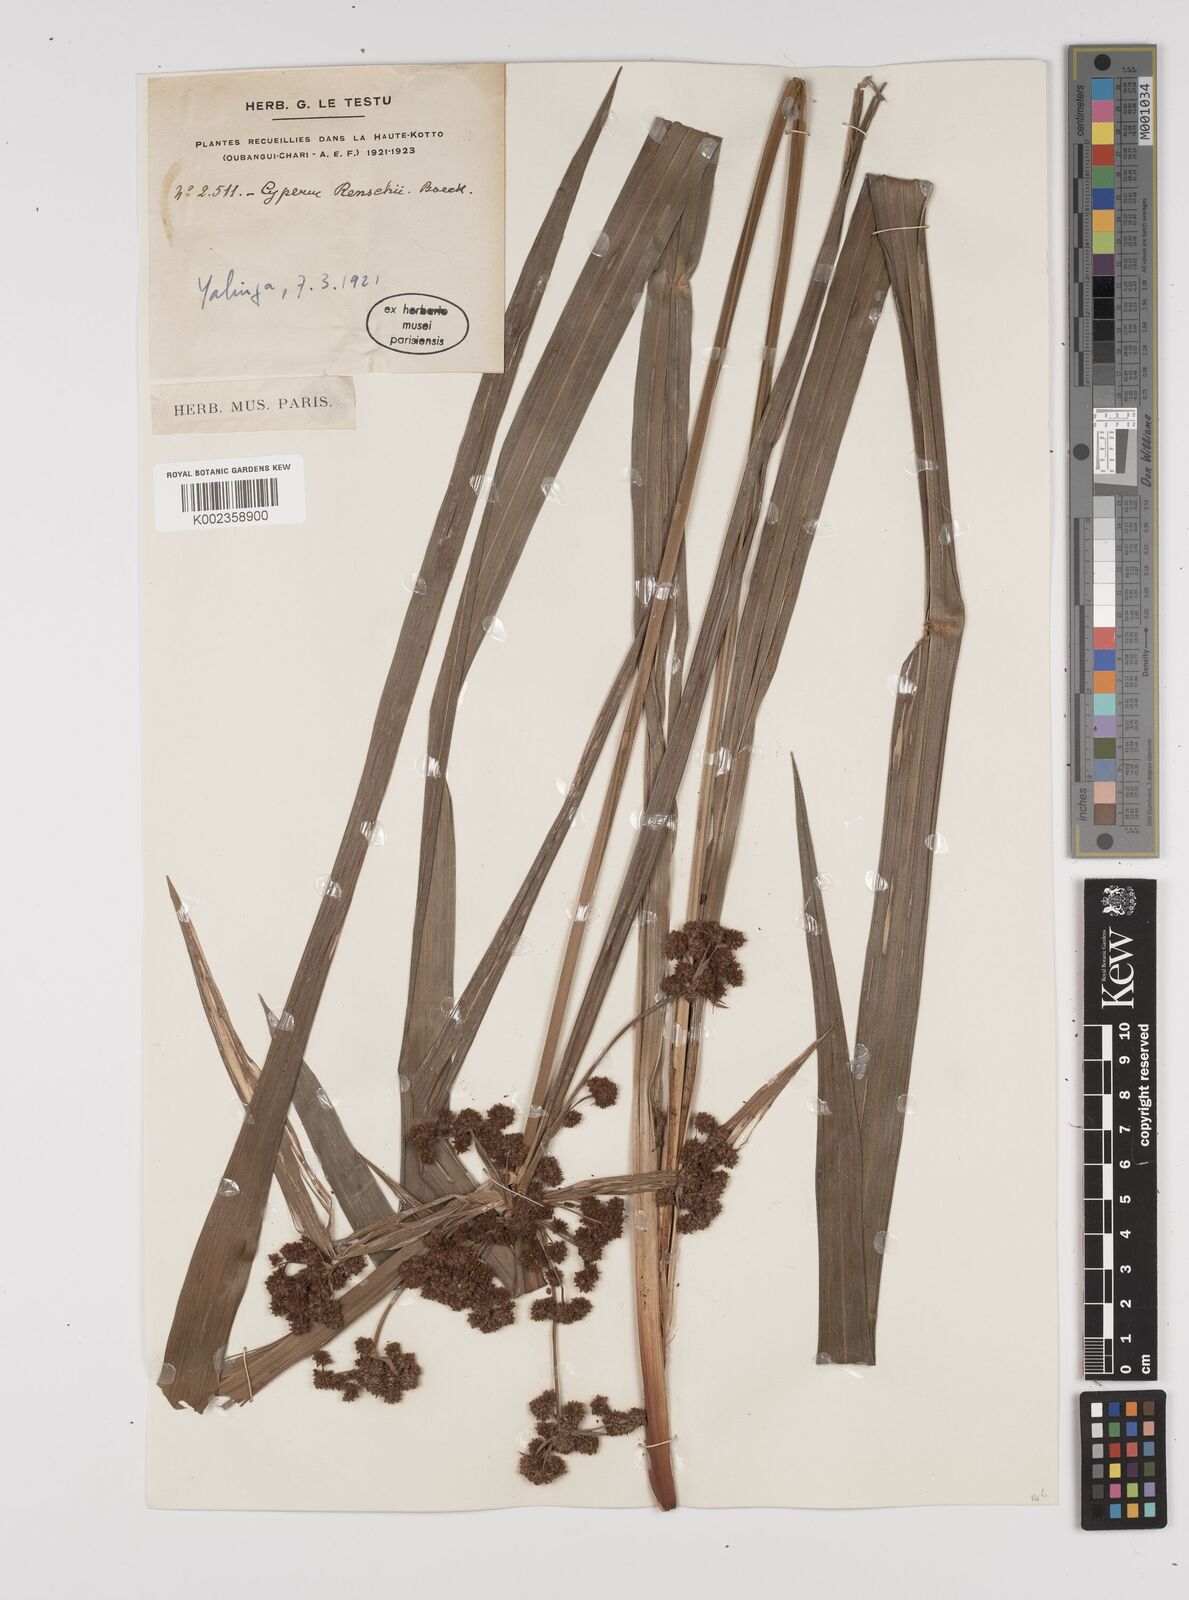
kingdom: Plantae
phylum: Tracheophyta
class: Liliopsida
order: Poales
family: Cyperaceae
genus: Cyperus
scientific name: Cyperus renschii
